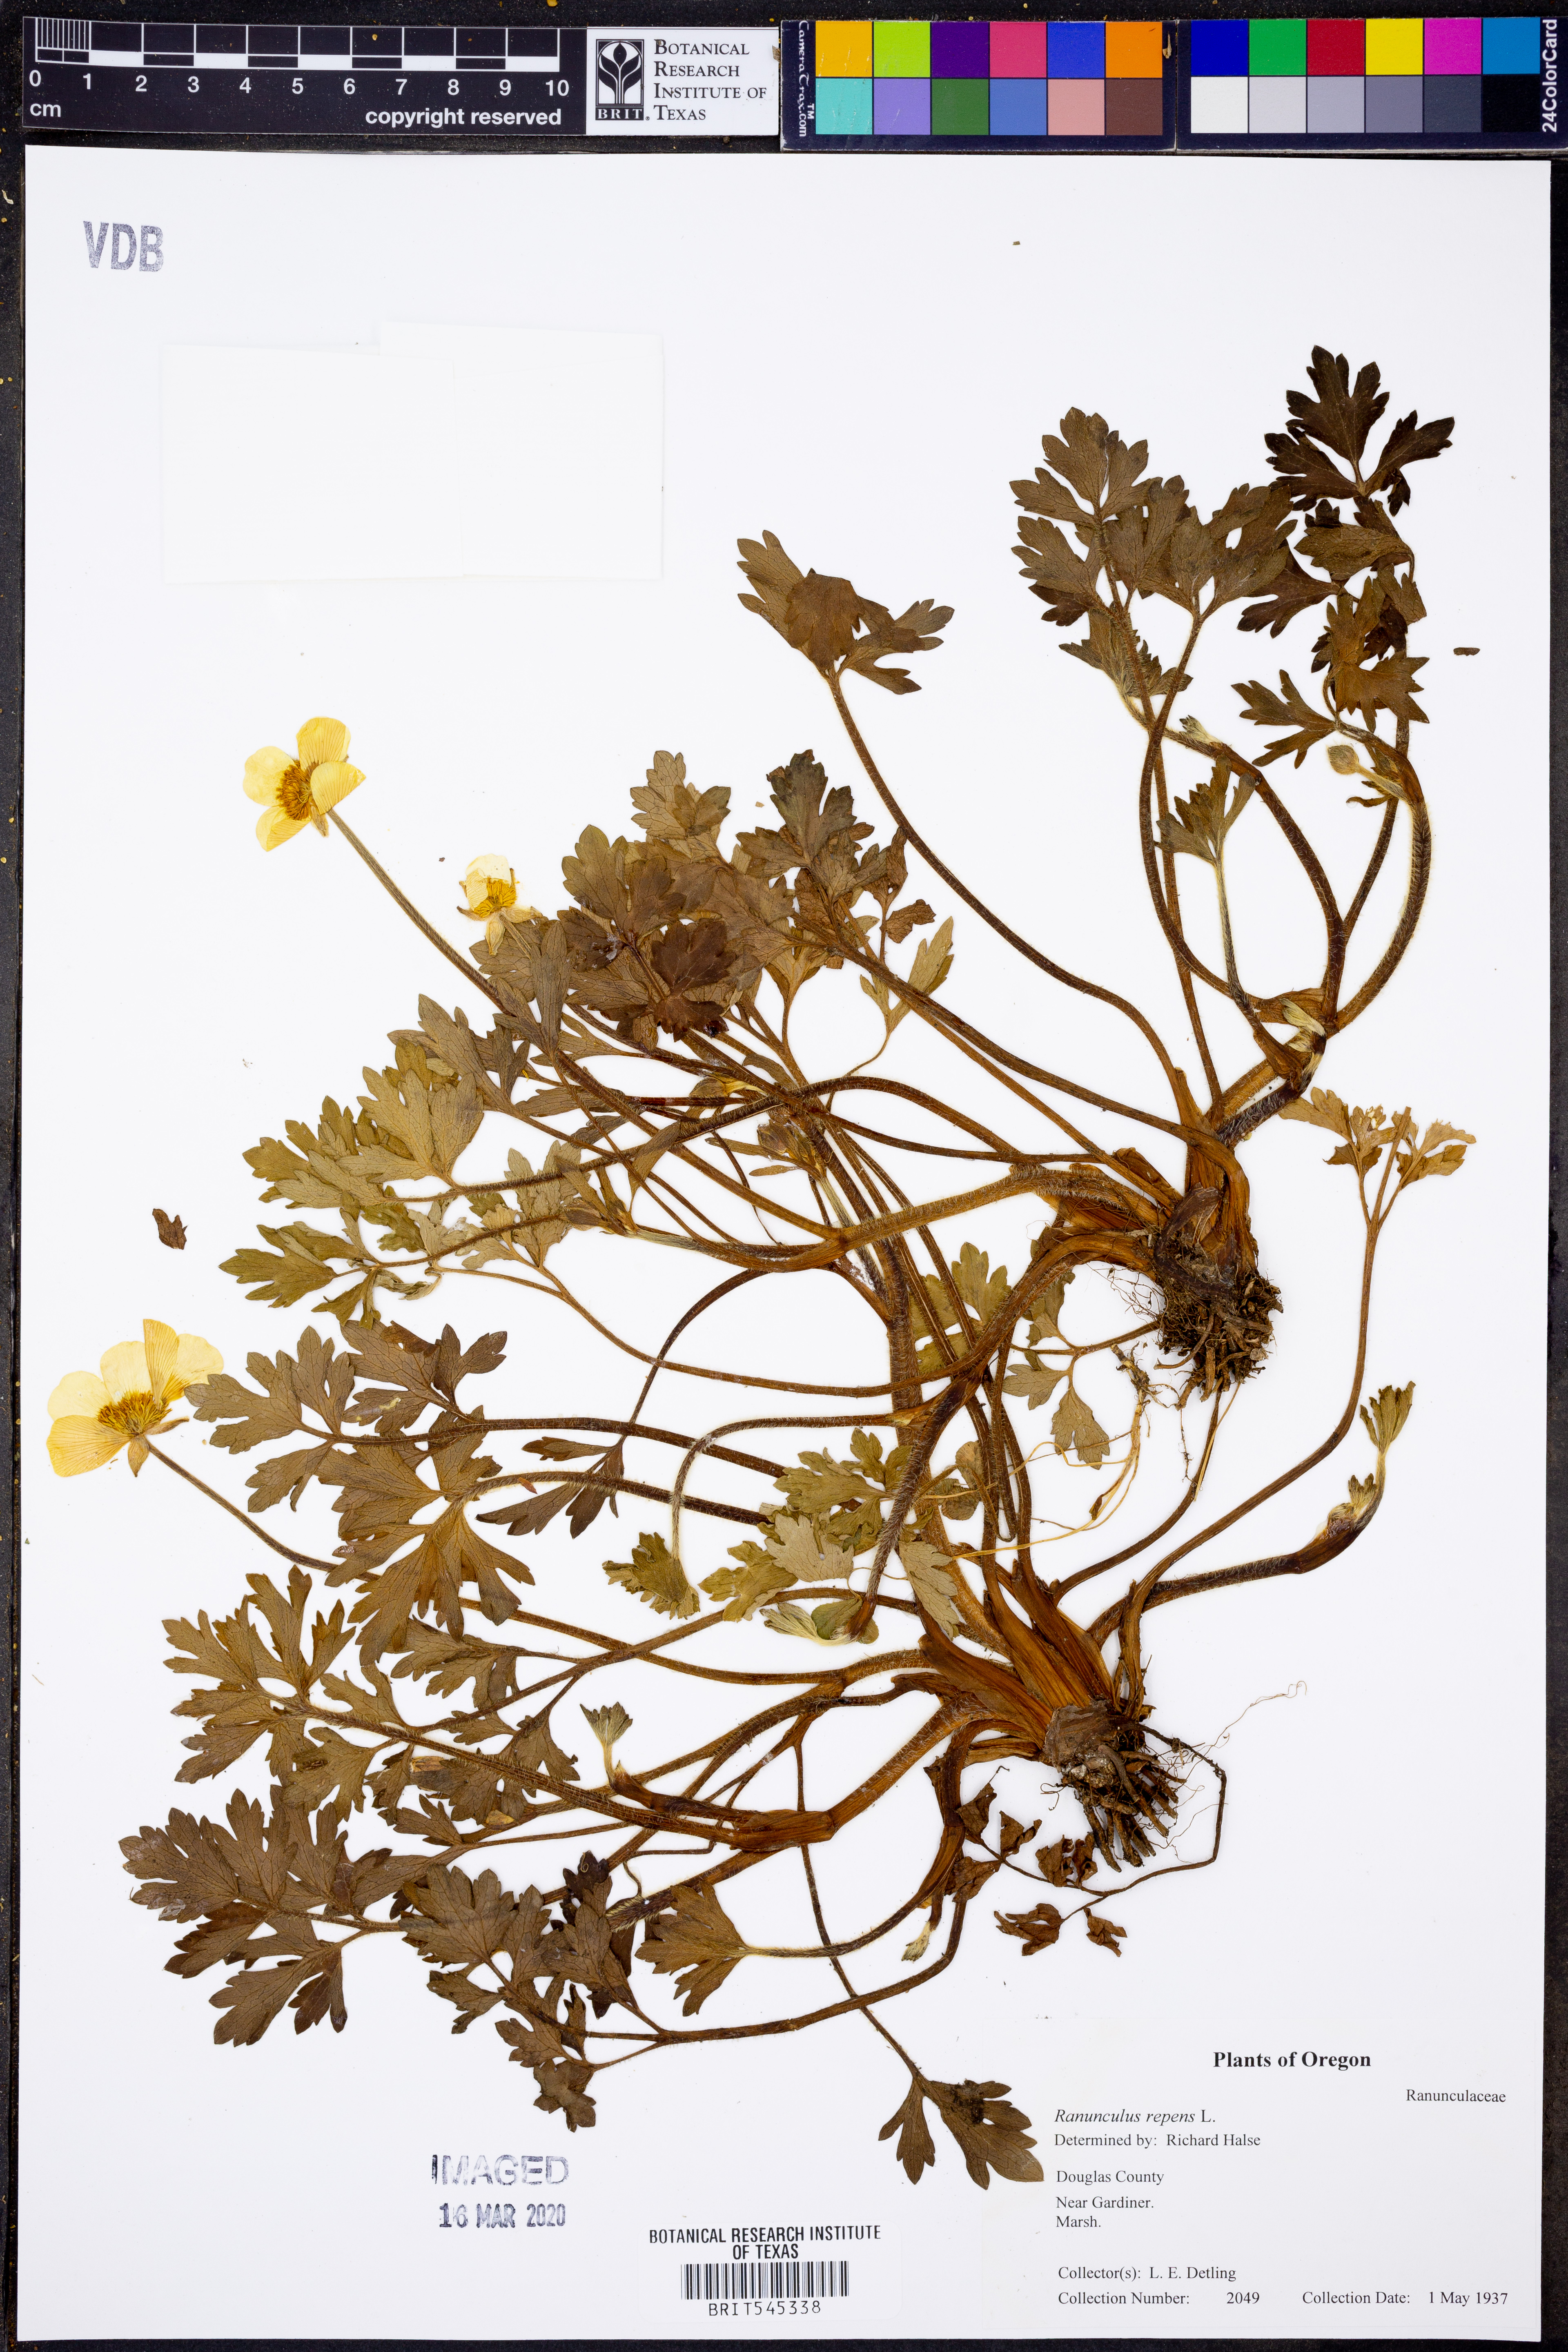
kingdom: Plantae
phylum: Tracheophyta
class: Magnoliopsida
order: Ranunculales
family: Ranunculaceae
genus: Ranunculus
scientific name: Ranunculus repens
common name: Creeping buttercup
